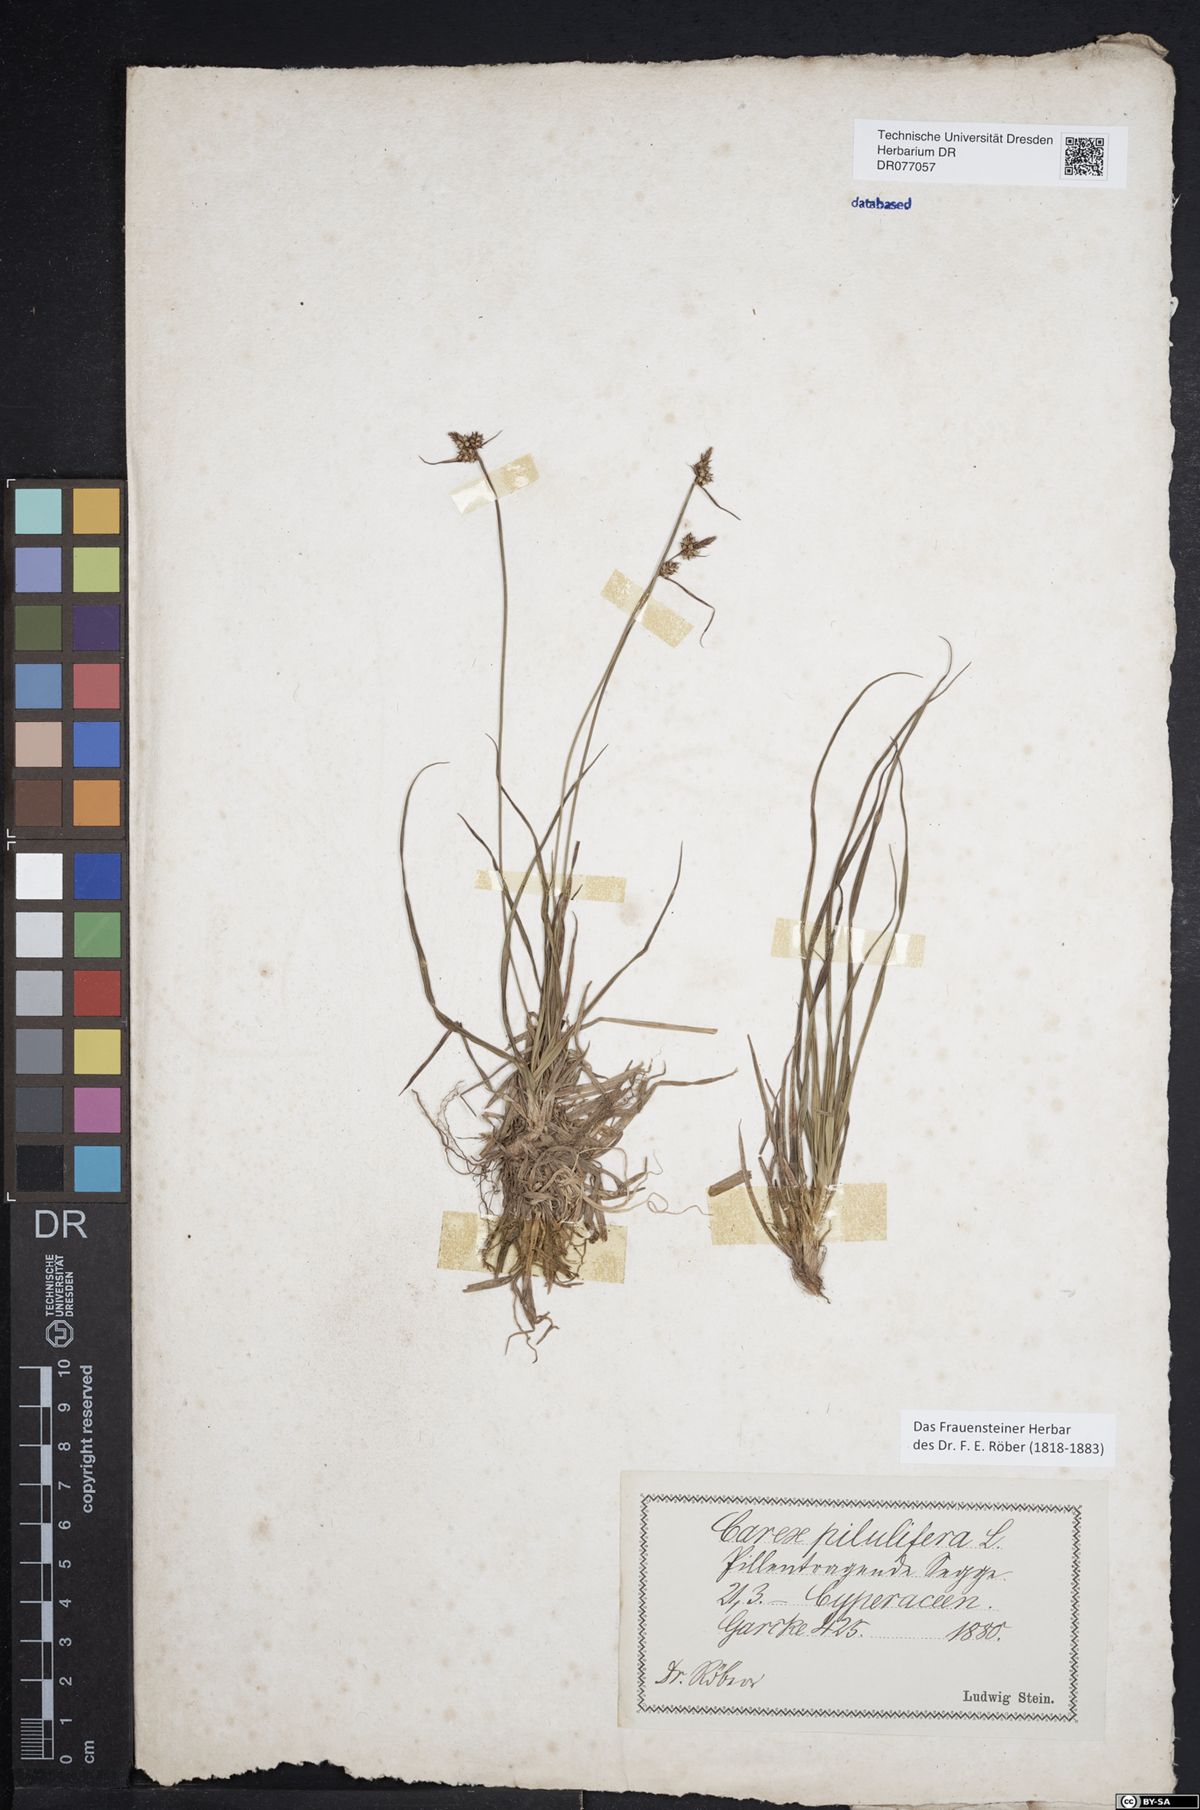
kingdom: Plantae
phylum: Tracheophyta
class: Liliopsida
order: Poales
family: Cyperaceae
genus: Carex
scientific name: Carex pilulifera
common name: Pill sedge
